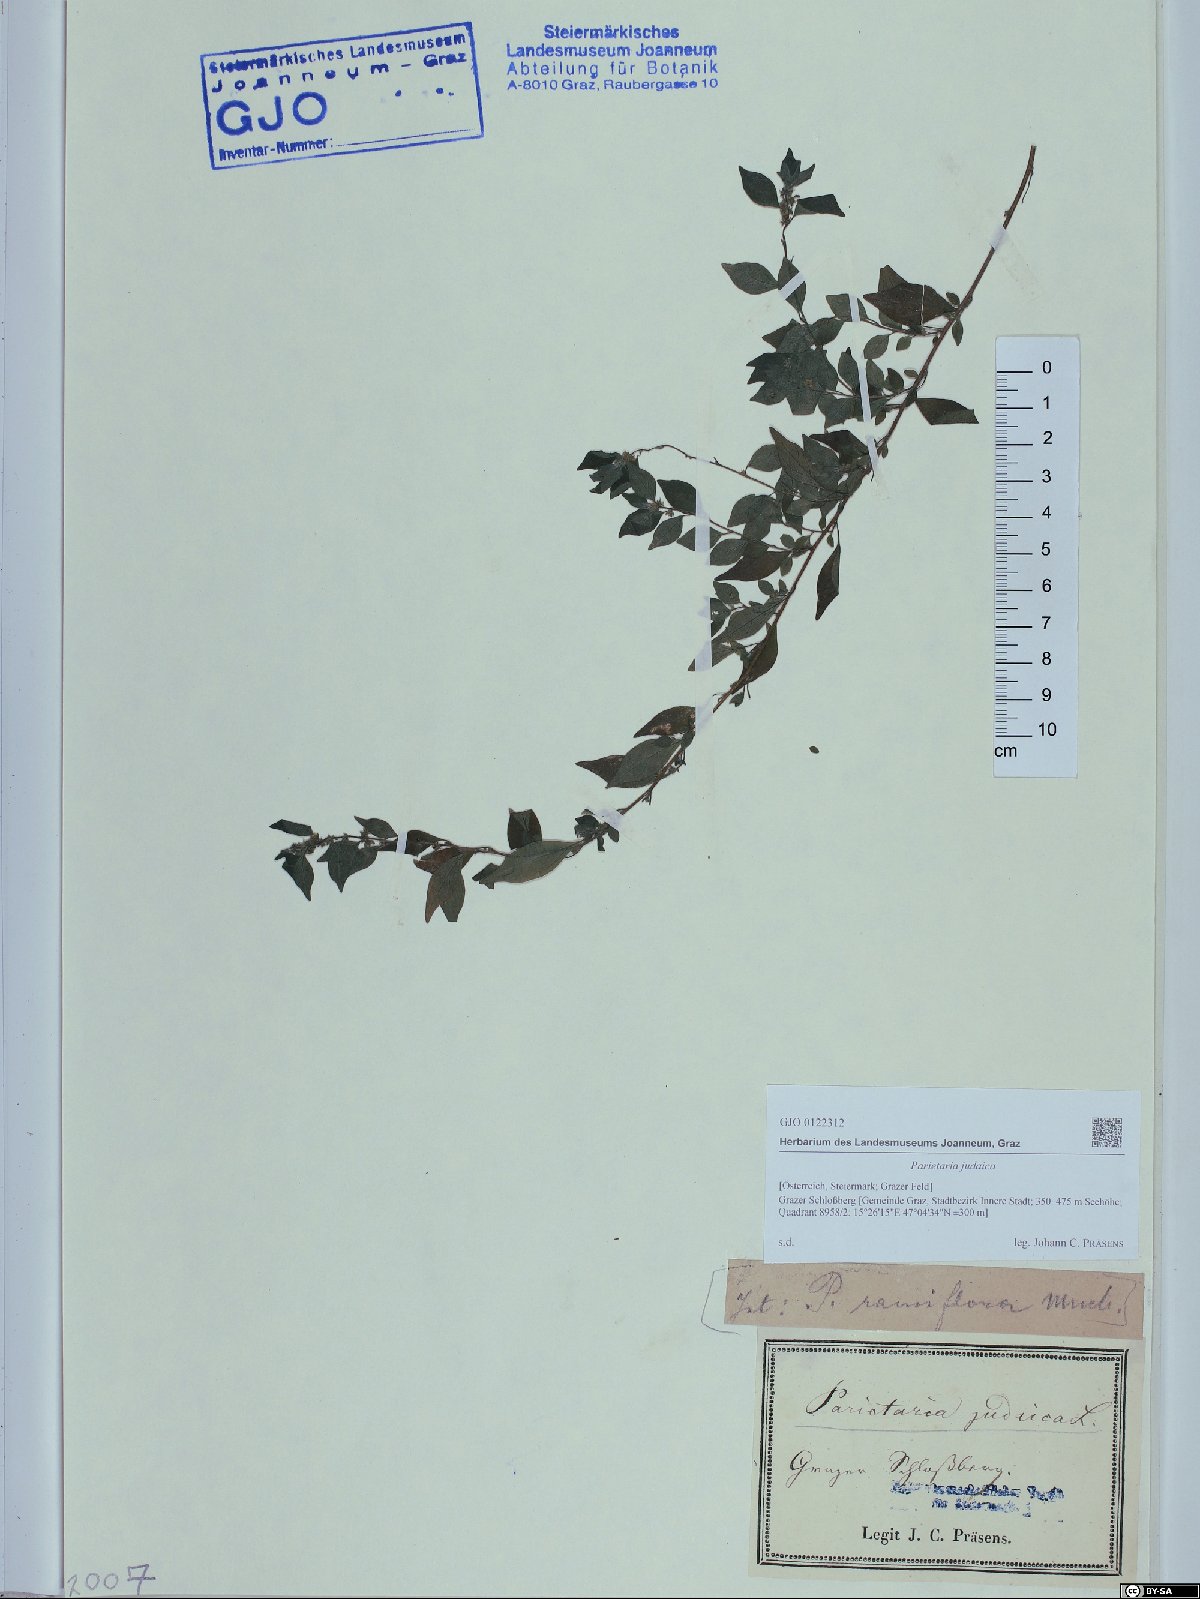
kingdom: Plantae
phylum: Tracheophyta
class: Magnoliopsida
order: Rosales
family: Urticaceae
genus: Parietaria
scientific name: Parietaria judaica
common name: Pellitory-of-the-wall
